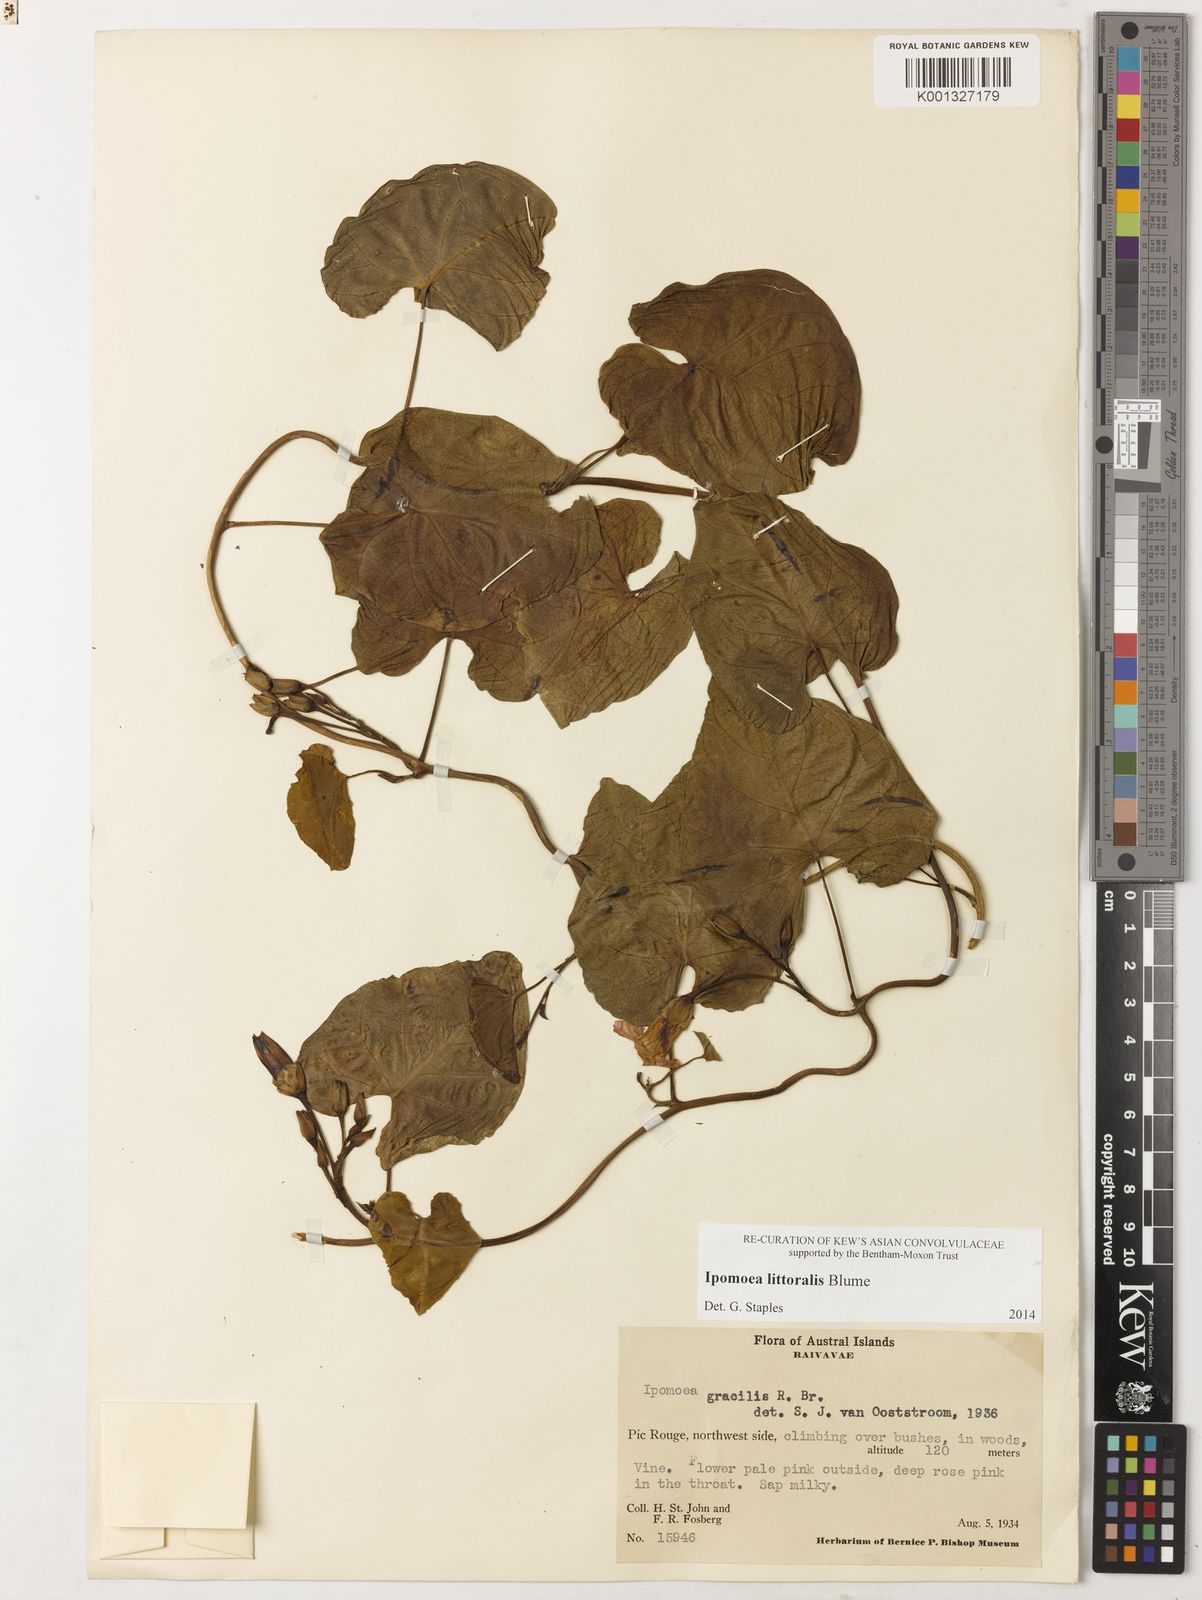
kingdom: Plantae
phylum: Tracheophyta
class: Magnoliopsida
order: Solanales
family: Convolvulaceae
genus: Ipomoea
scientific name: Ipomoea littoralis
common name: Coastal morning glory
